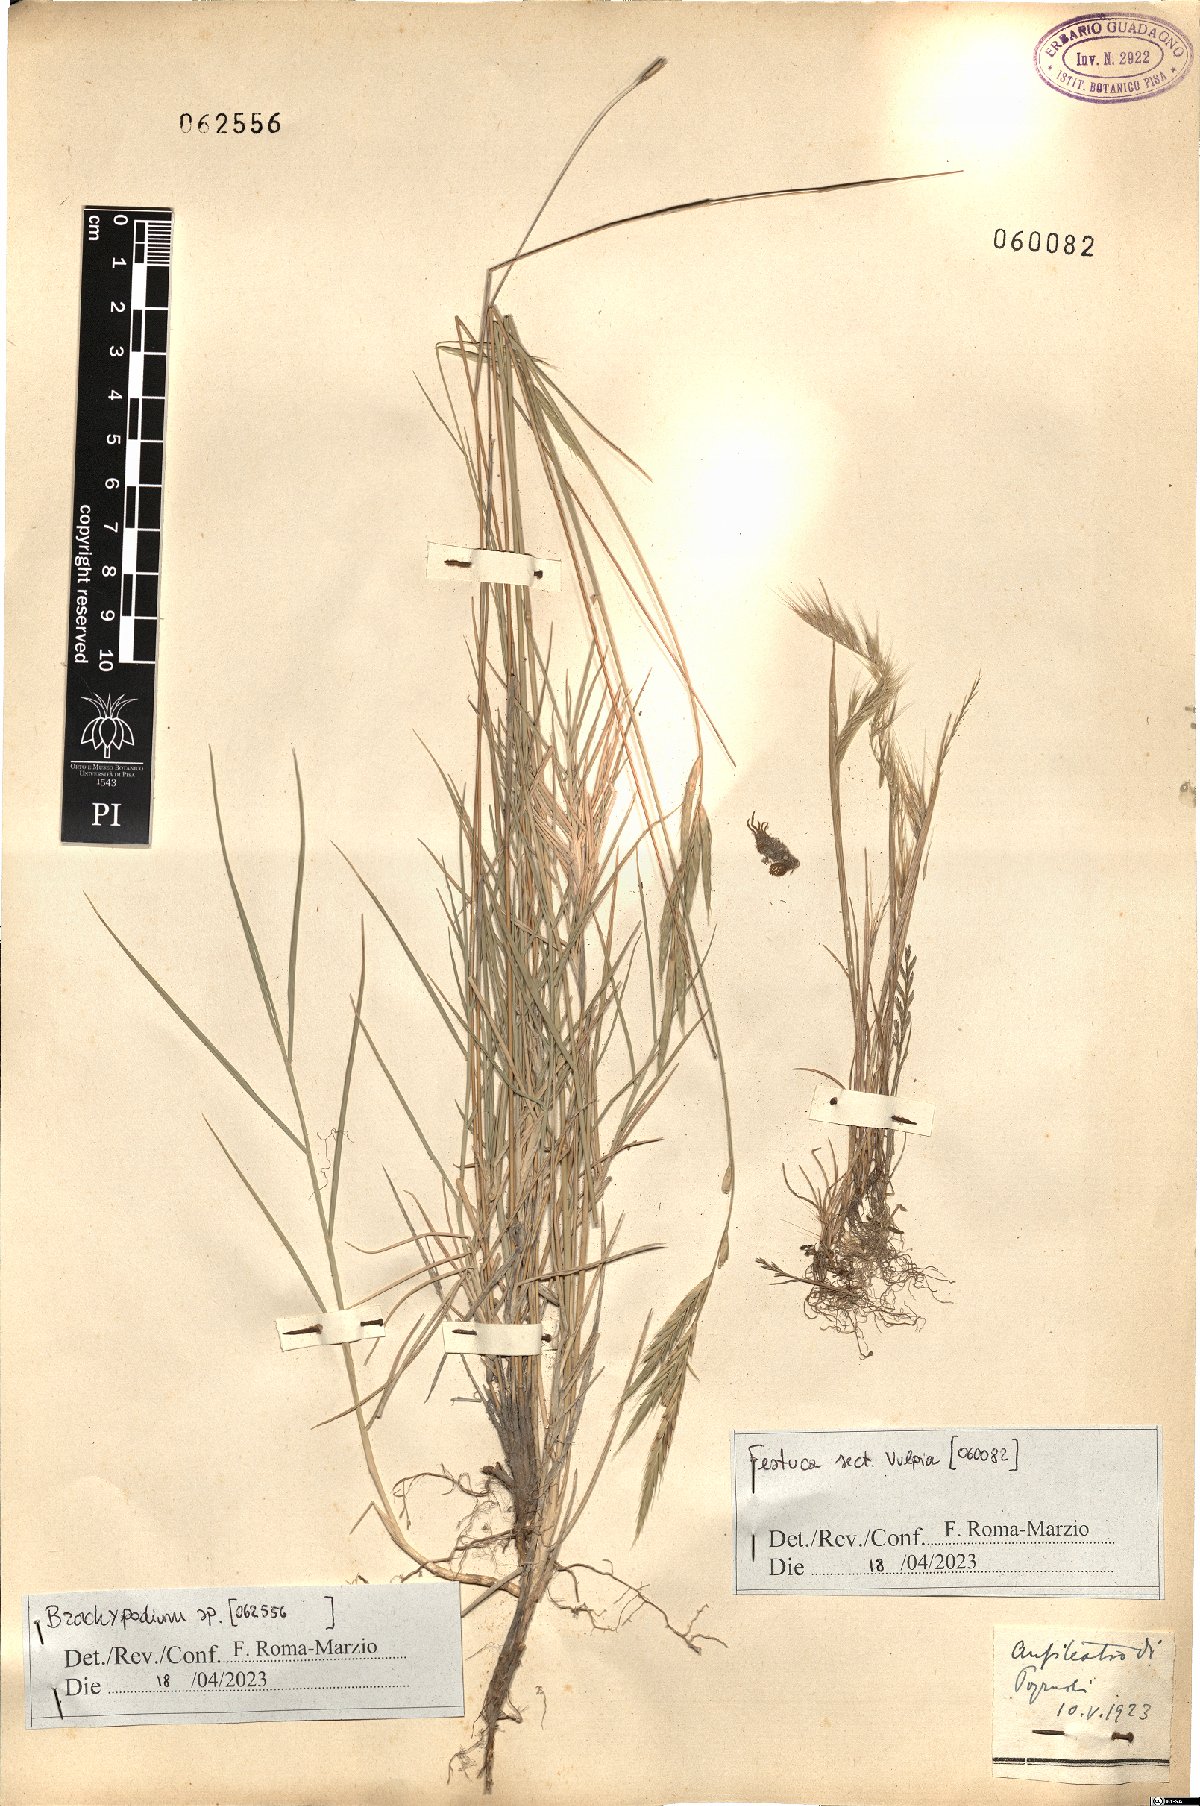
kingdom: Plantae
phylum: Tracheophyta
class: Liliopsida
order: Poales
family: Poaceae
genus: Brachypodium
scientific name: Brachypodium
